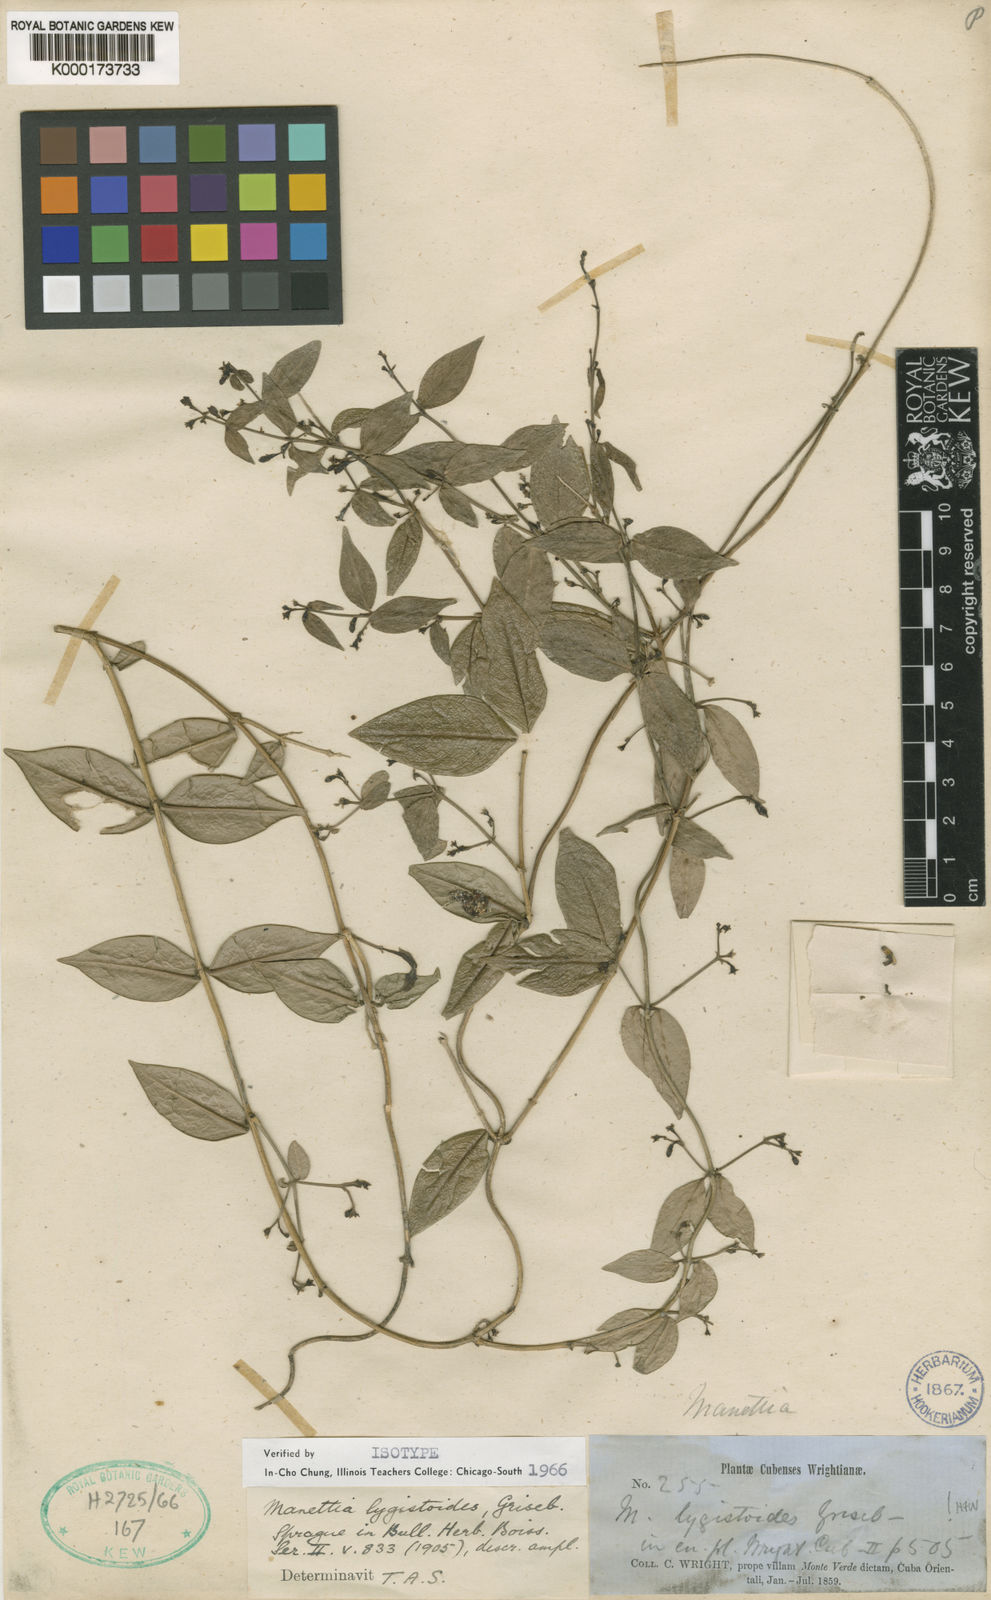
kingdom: Plantae
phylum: Tracheophyta
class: Magnoliopsida
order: Gentianales
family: Rubiaceae
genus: Manettia
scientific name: Manettia lygistum
